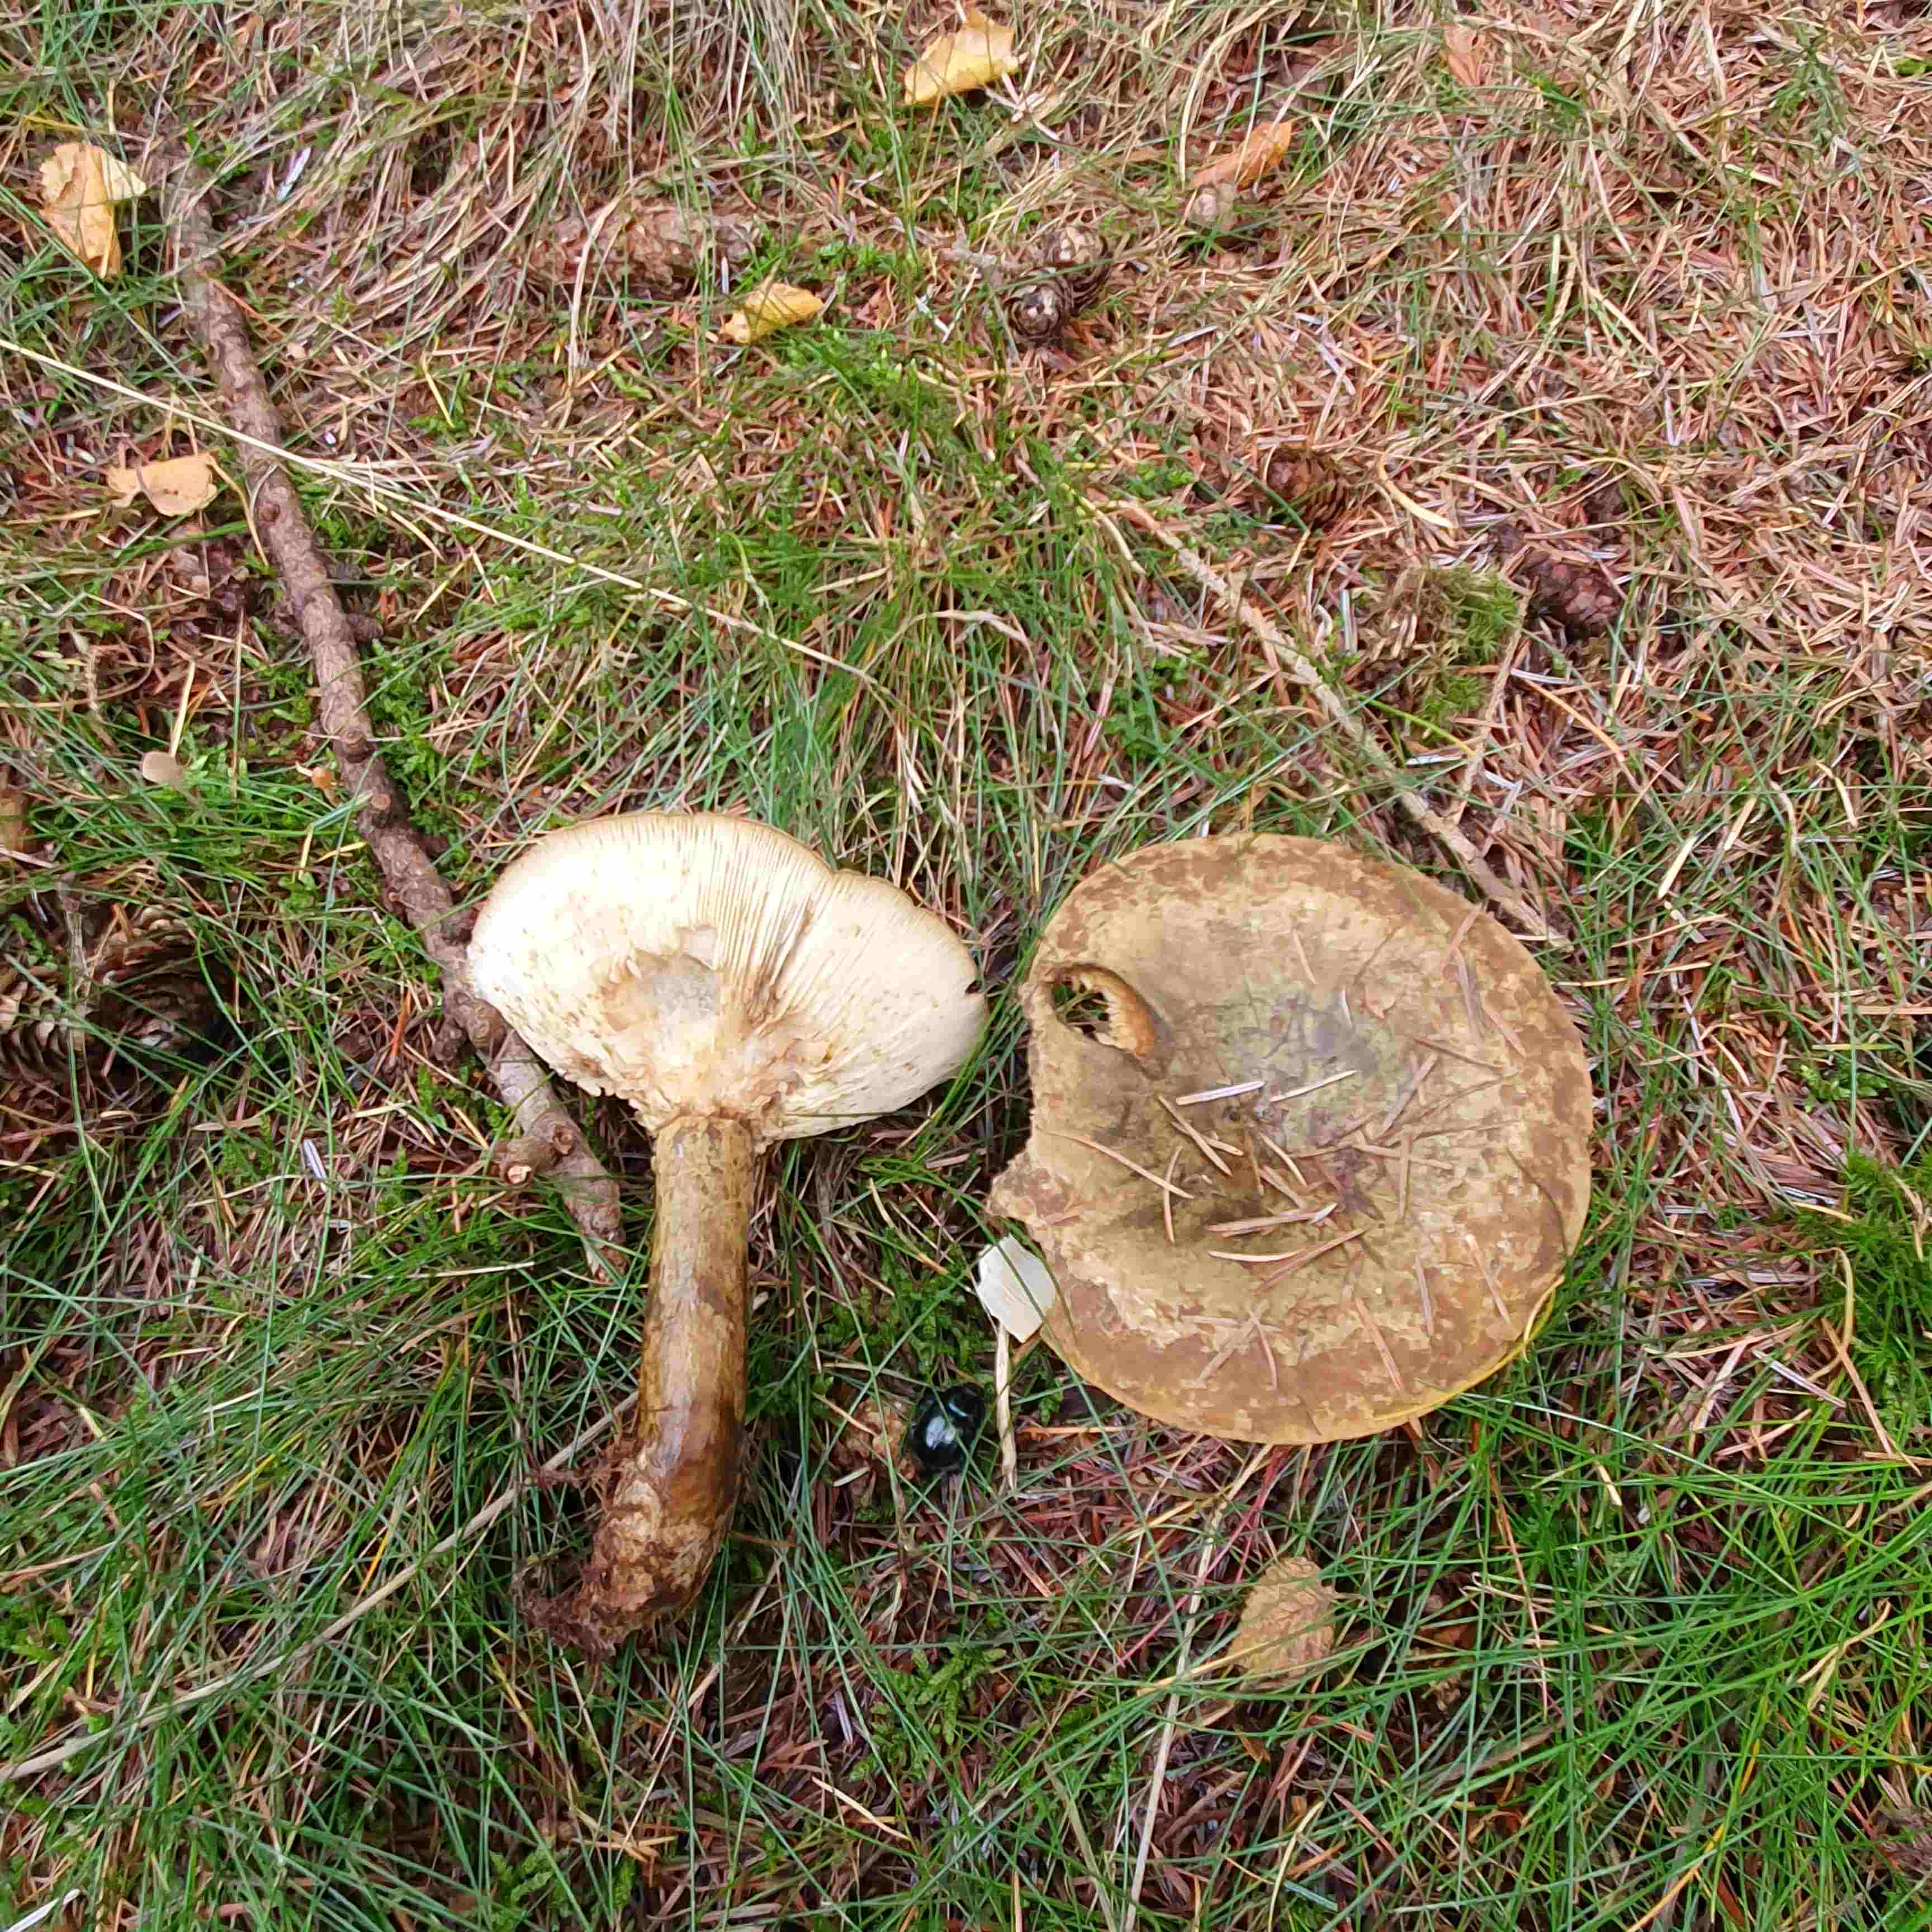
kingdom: Fungi
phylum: Basidiomycota
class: Agaricomycetes
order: Russulales
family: Russulaceae
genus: Lactarius
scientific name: Lactarius necator
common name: manddraber-mælkehat
